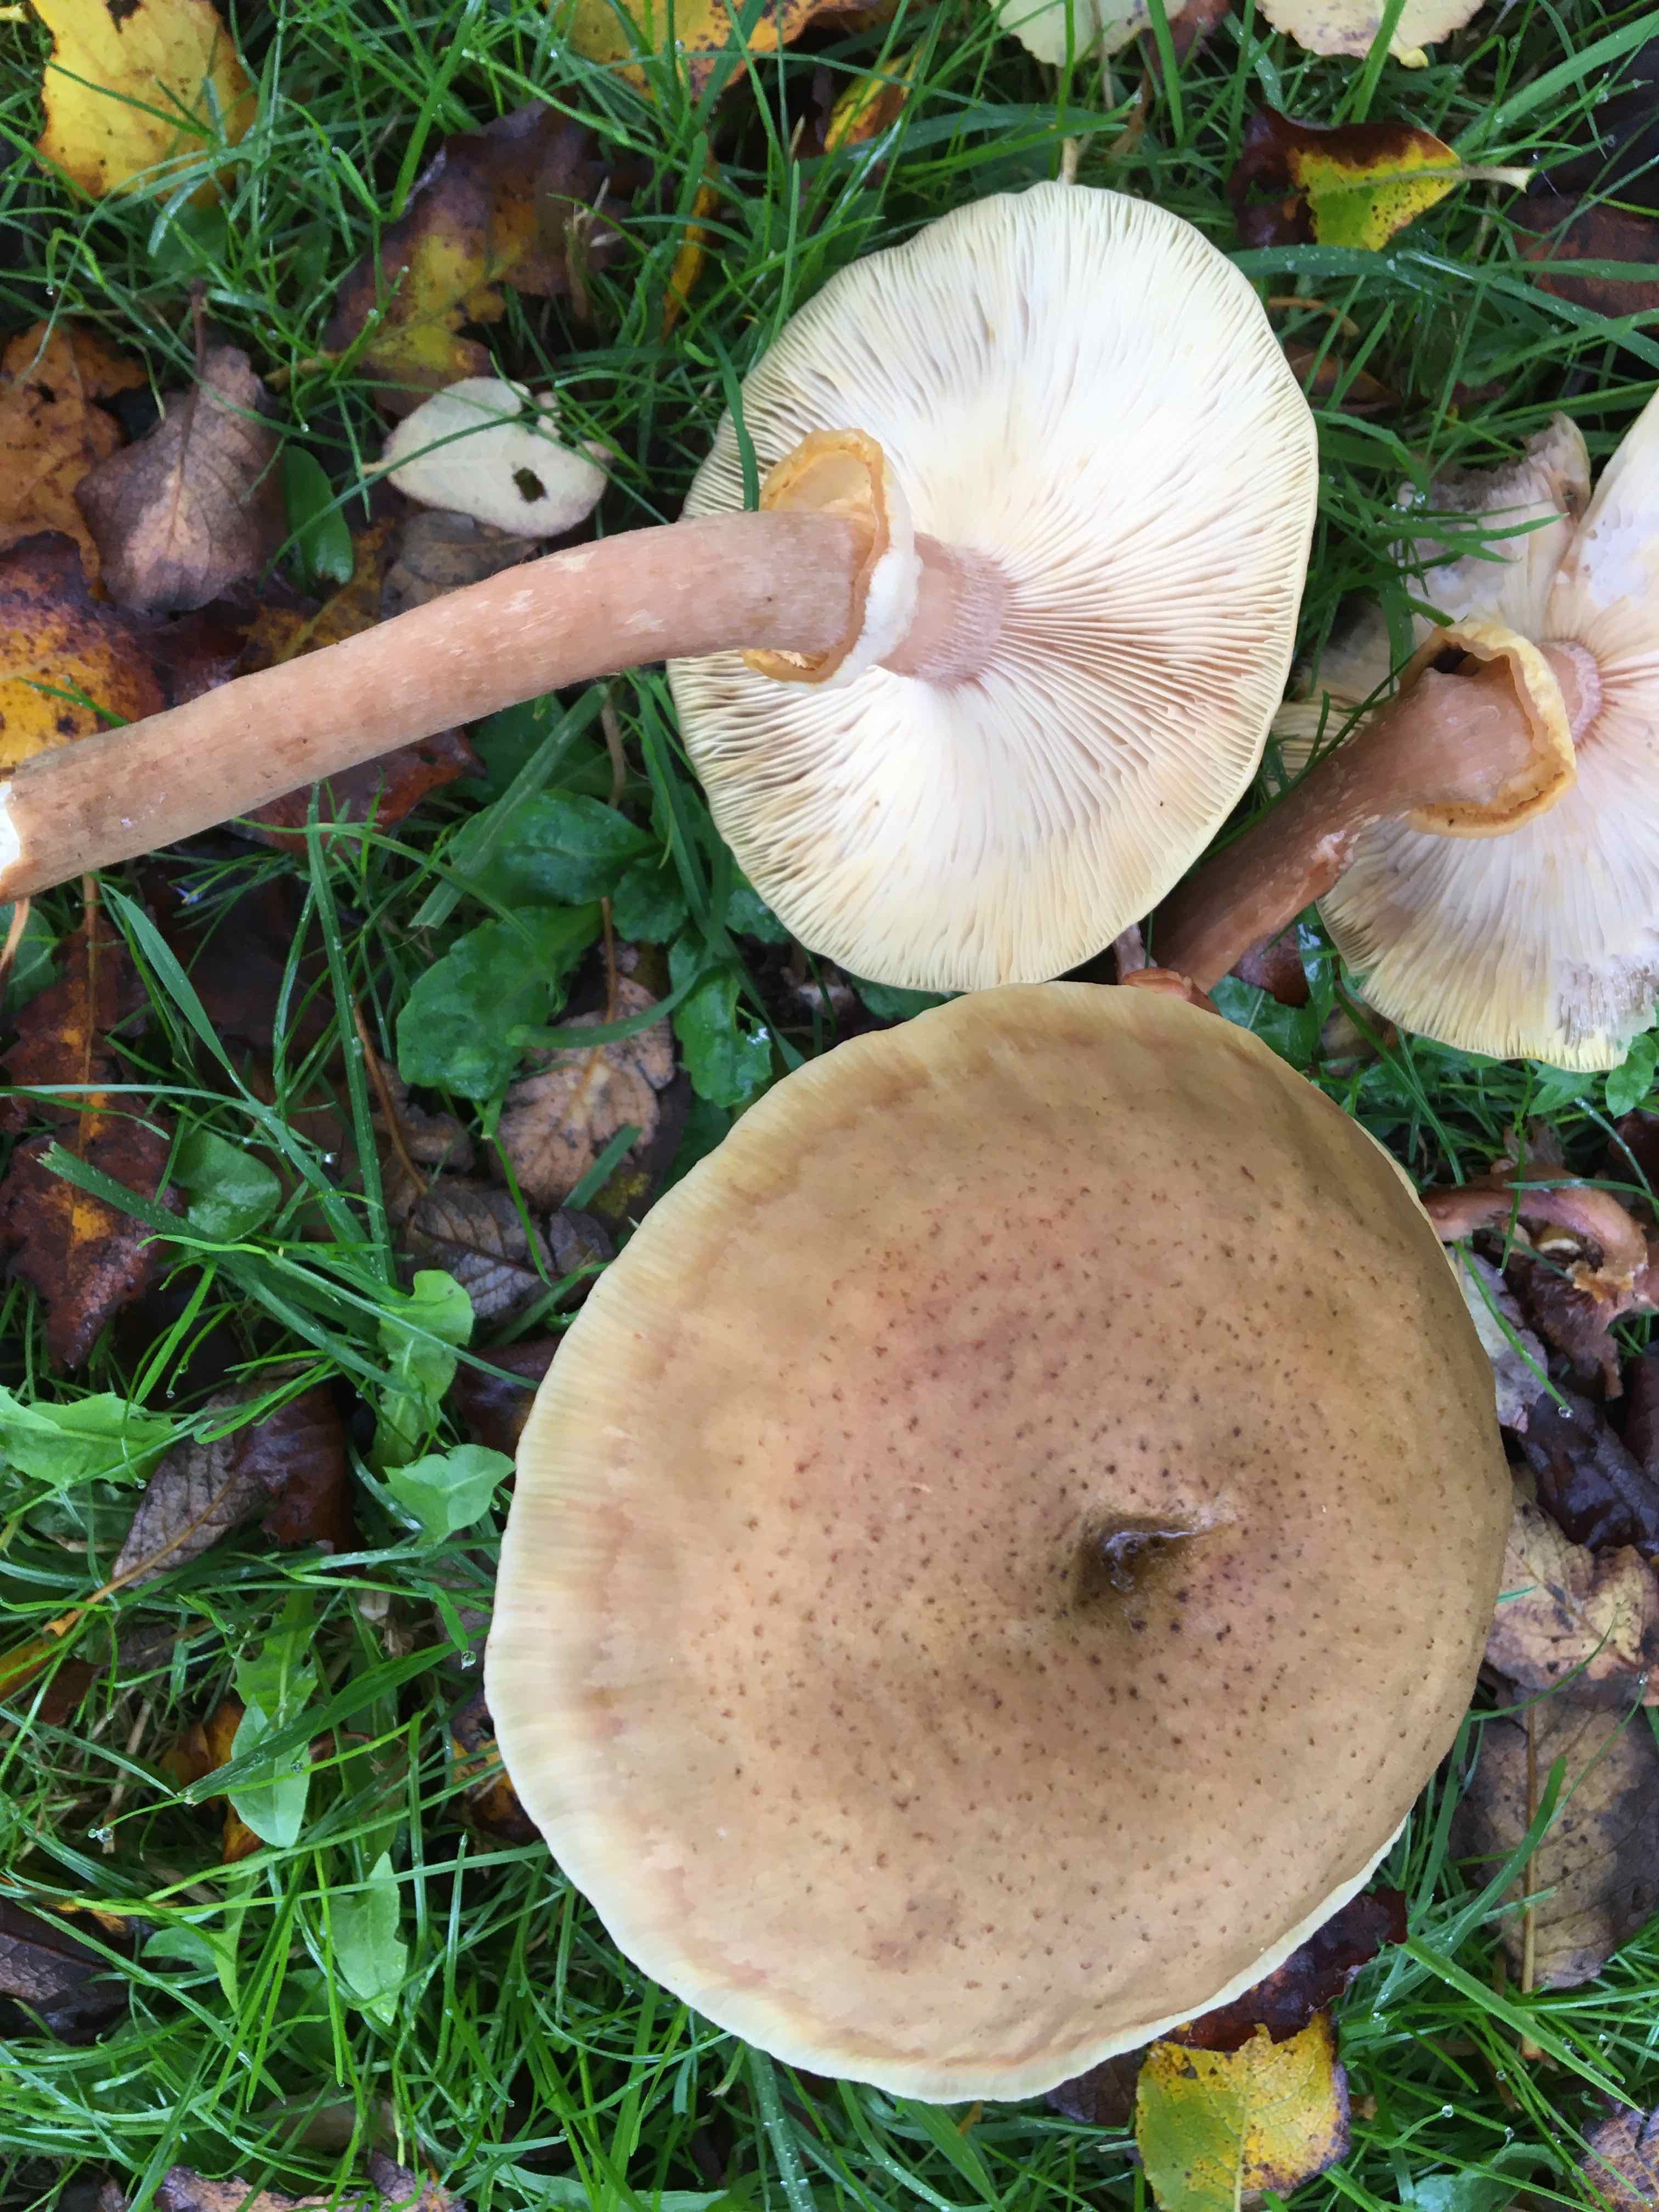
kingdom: Fungi
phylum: Basidiomycota
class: Agaricomycetes
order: Agaricales
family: Physalacriaceae
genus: Armillaria
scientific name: Armillaria mellea
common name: ægte honningsvamp
